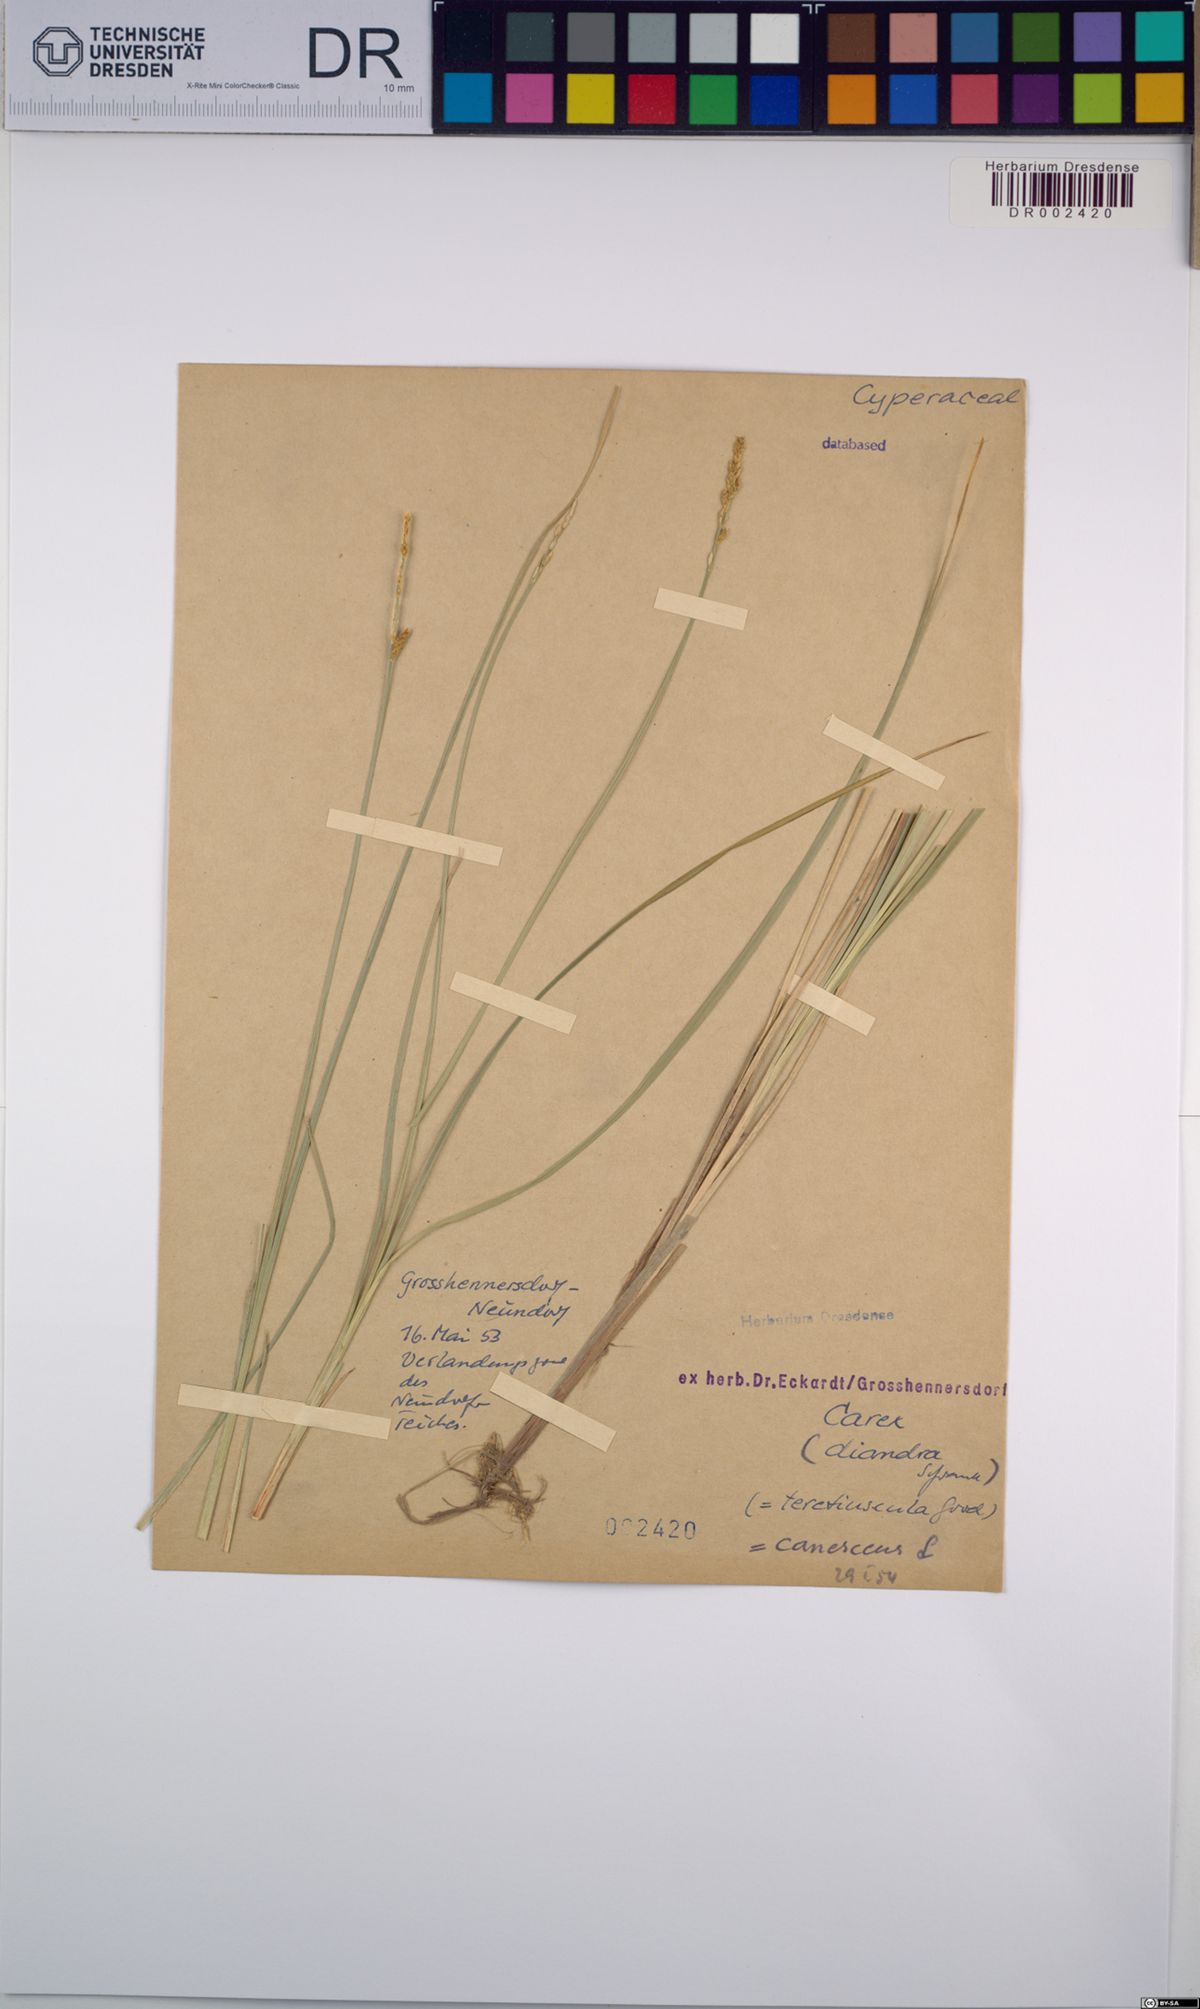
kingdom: Plantae
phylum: Tracheophyta
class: Liliopsida
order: Poales
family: Cyperaceae
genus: Carex
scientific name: Carex canescens
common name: White sedge
